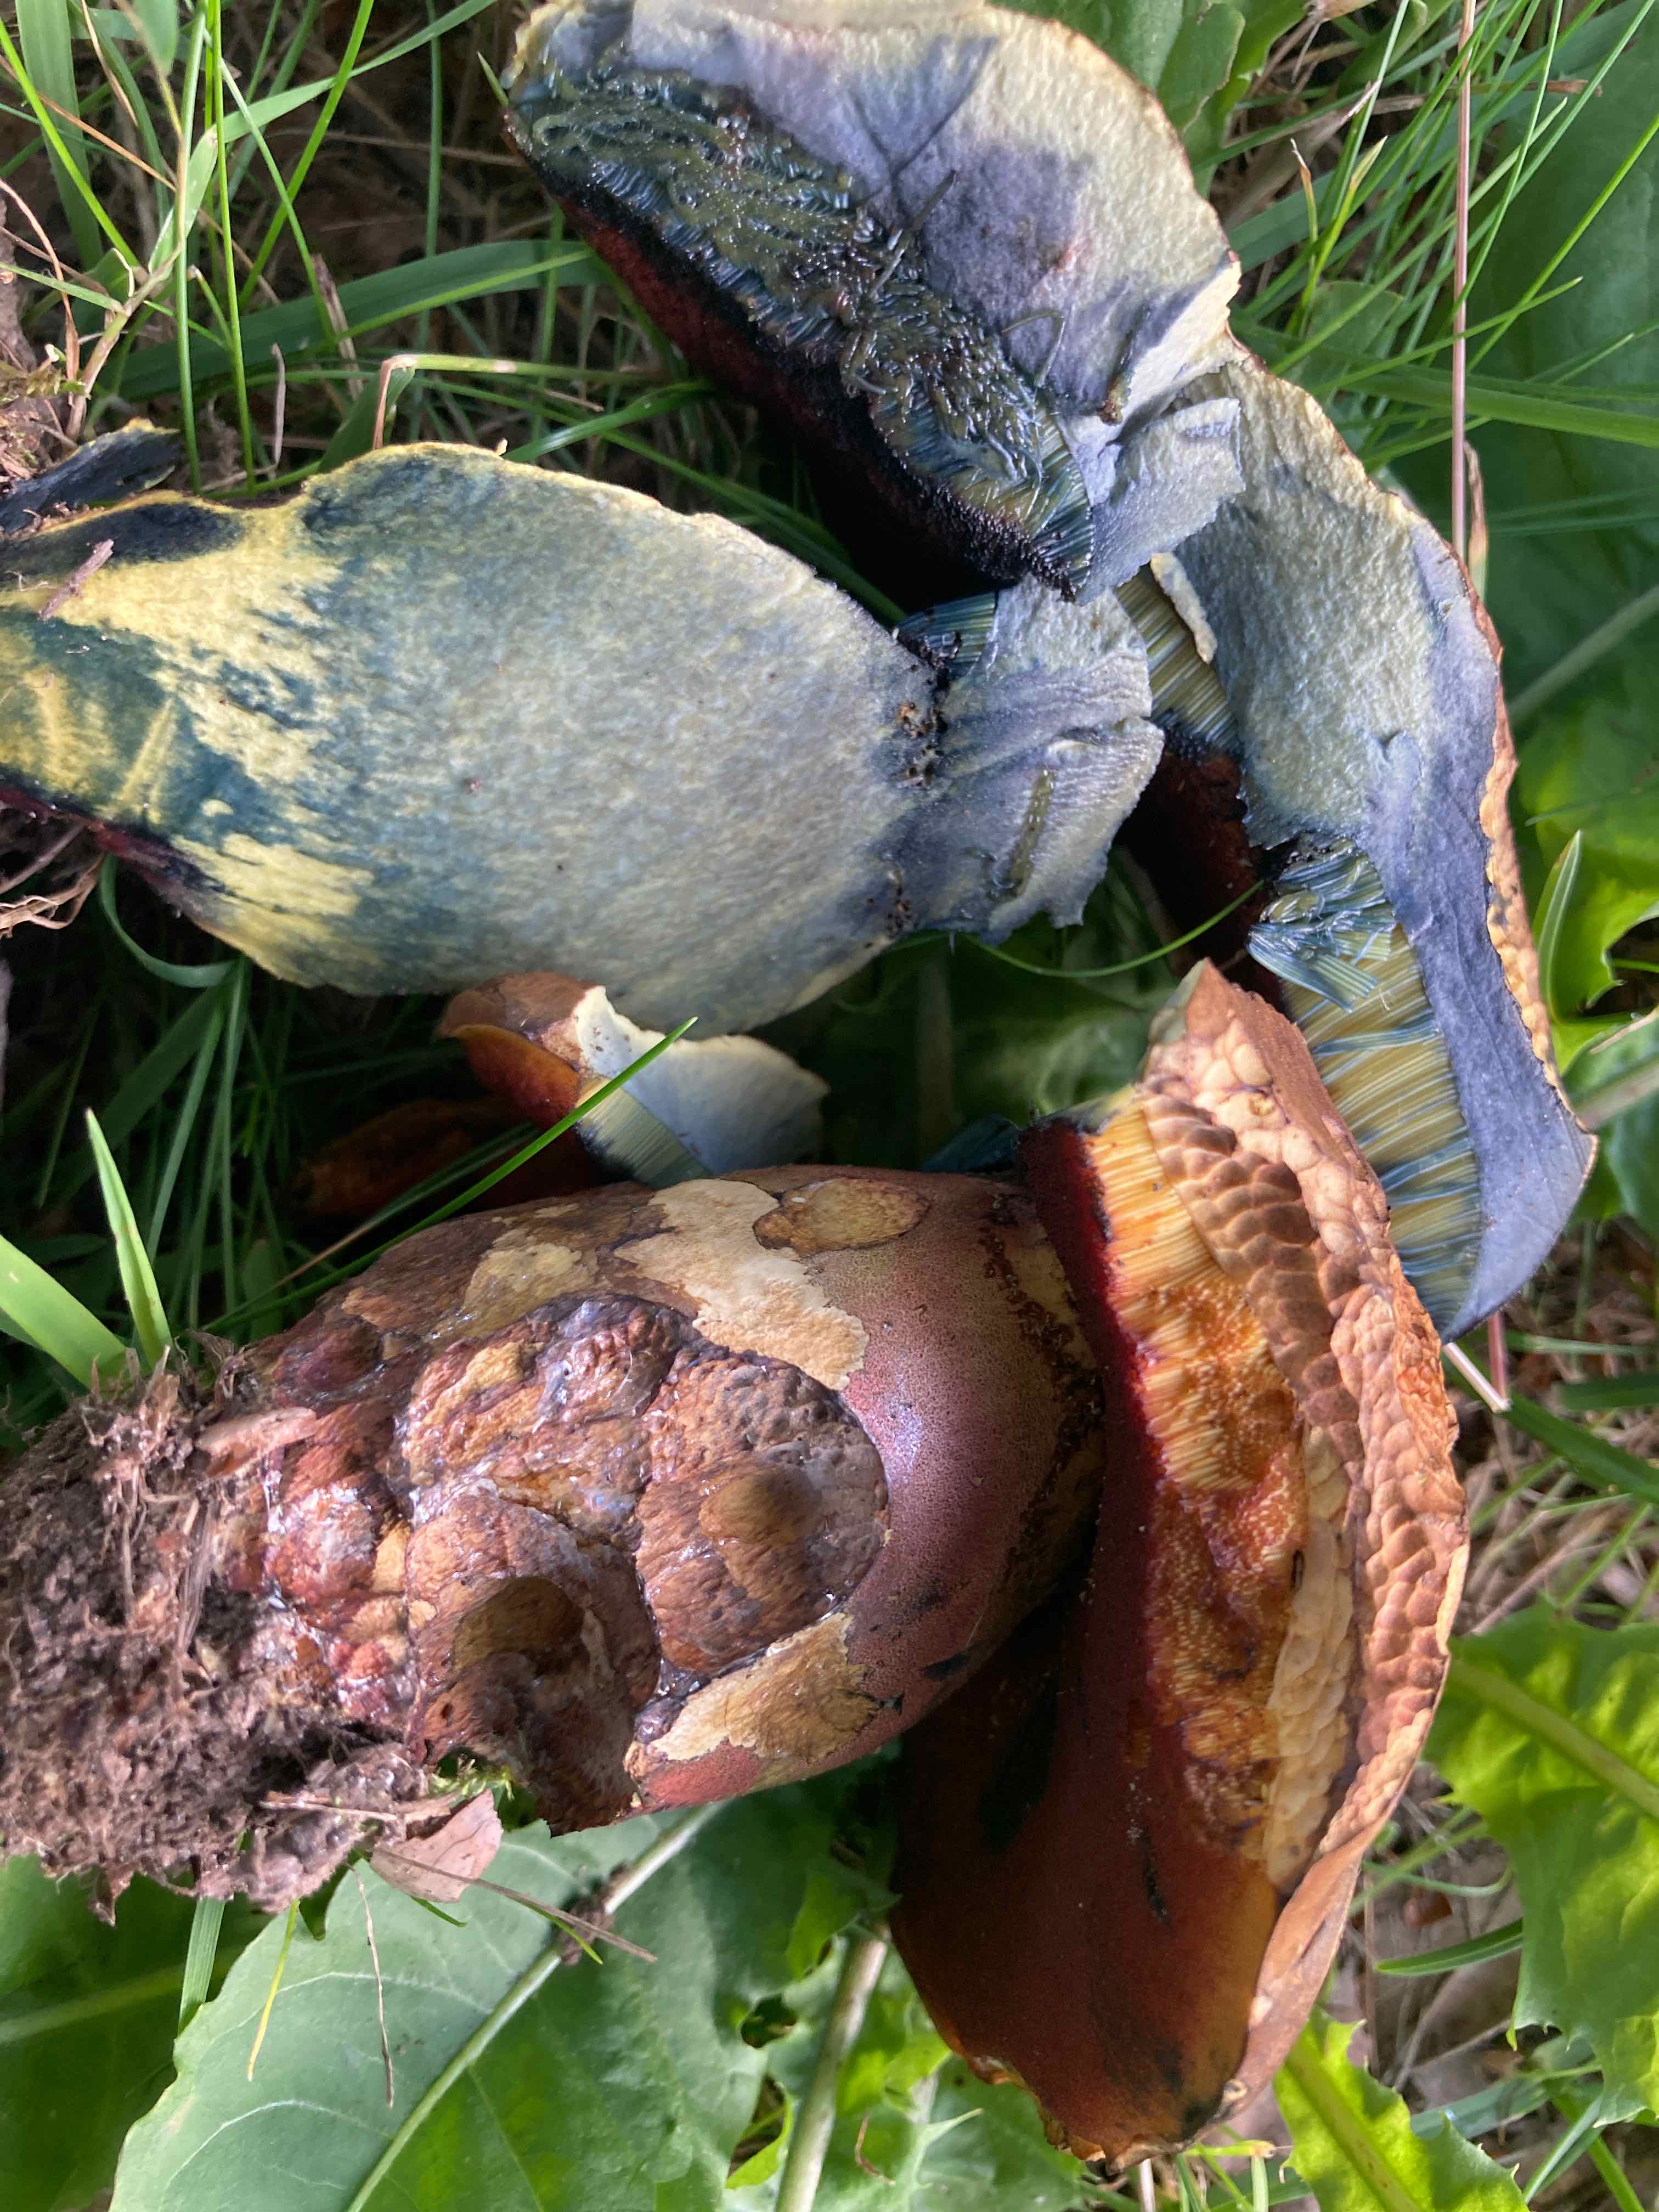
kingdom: Fungi
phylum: Basidiomycota
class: Agaricomycetes
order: Boletales
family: Boletaceae
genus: Neoboletus
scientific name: Neoboletus xanthopus
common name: finprikket indigorørhat
